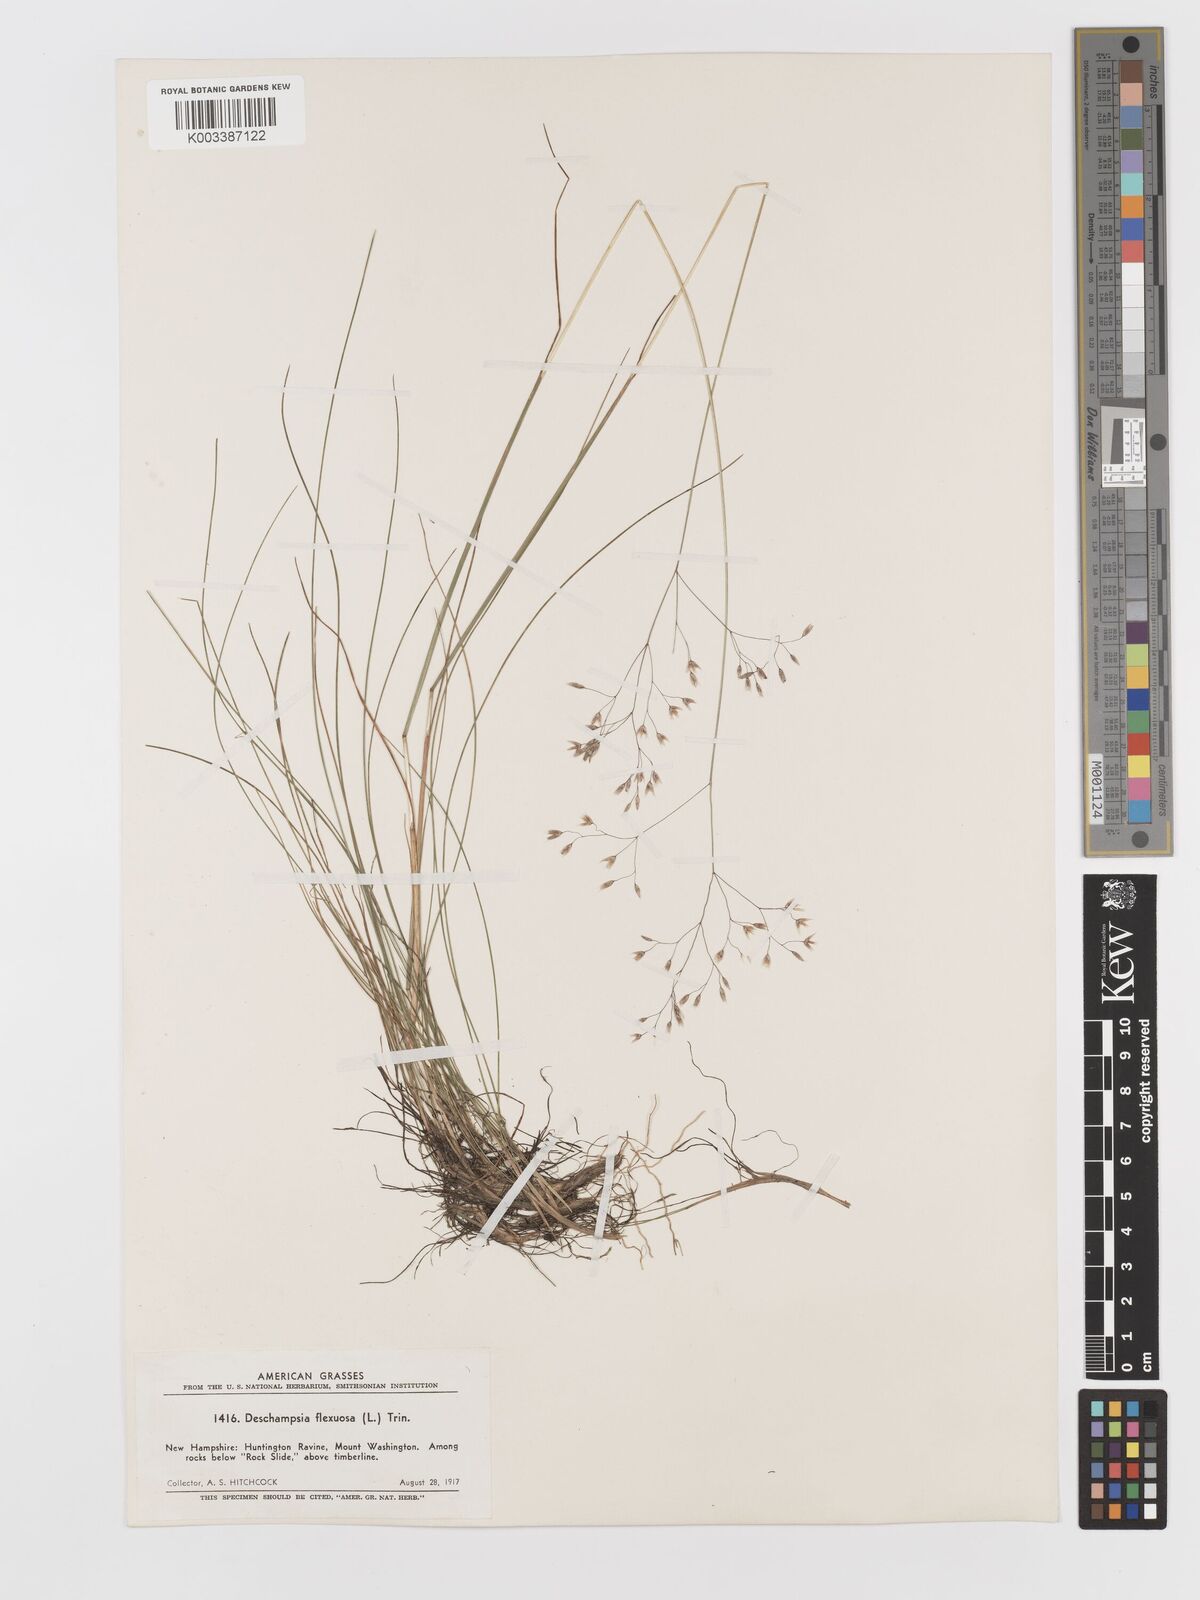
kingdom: Plantae
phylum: Tracheophyta
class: Liliopsida
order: Poales
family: Poaceae
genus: Avenella
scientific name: Avenella flexuosa
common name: Wavy hairgrass
